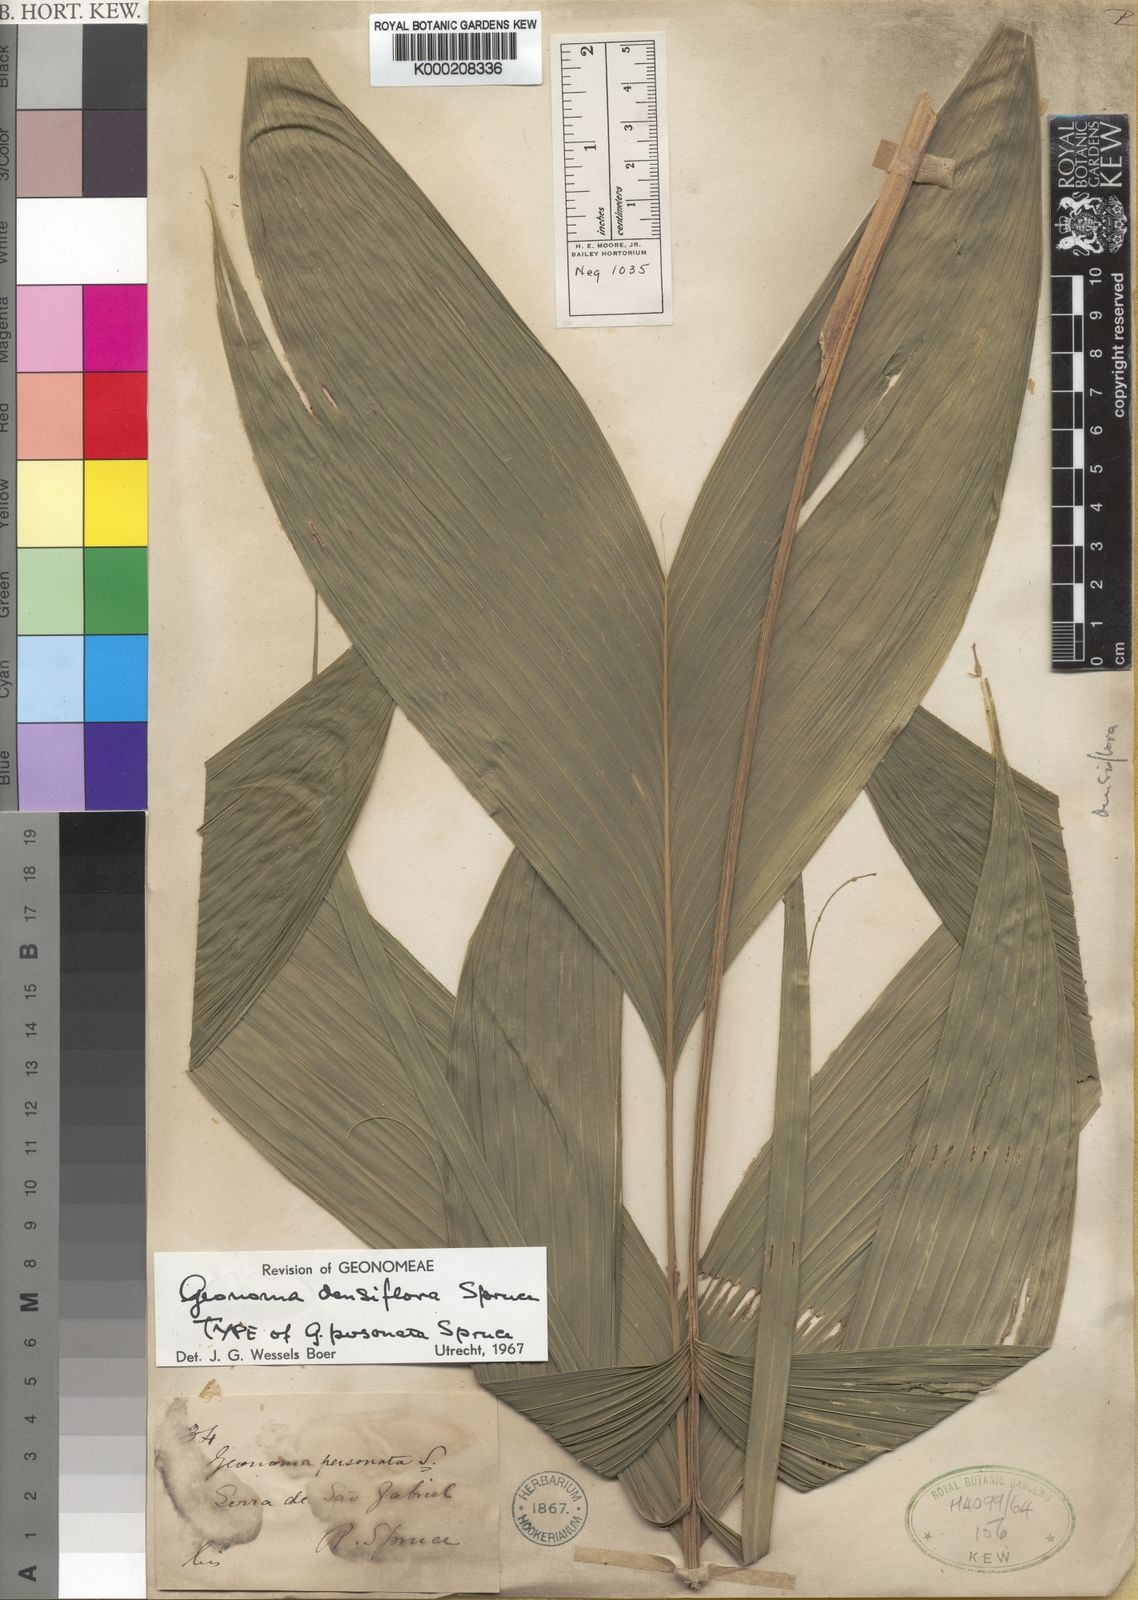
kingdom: Plantae
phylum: Tracheophyta
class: Liliopsida
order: Arecales
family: Arecaceae
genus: Geonoma
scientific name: Geonoma maxima
